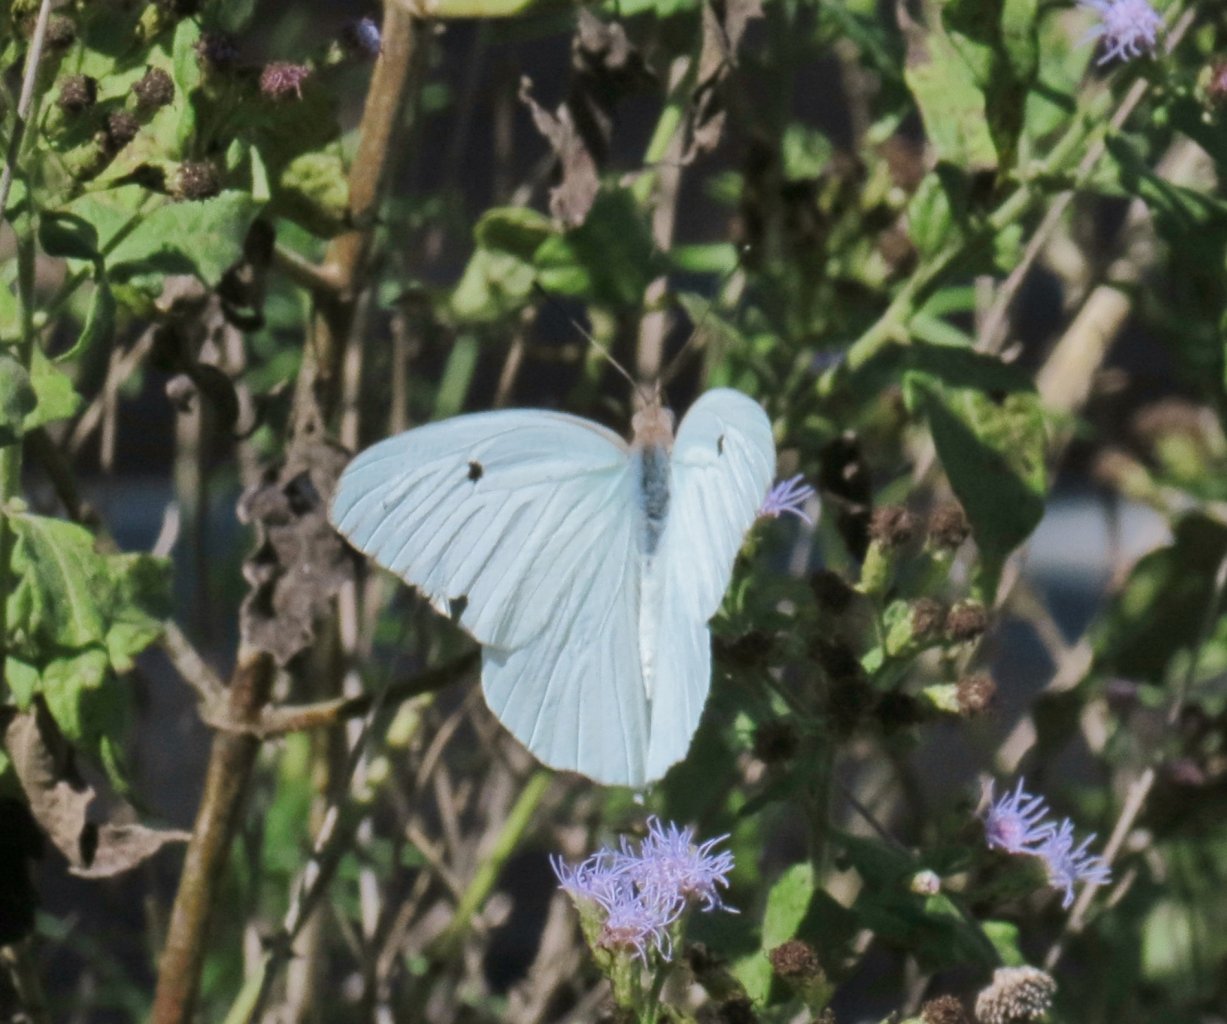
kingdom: Animalia
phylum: Arthropoda
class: Insecta
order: Lepidoptera
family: Pieridae
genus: Ganyra
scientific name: Ganyra josephina
